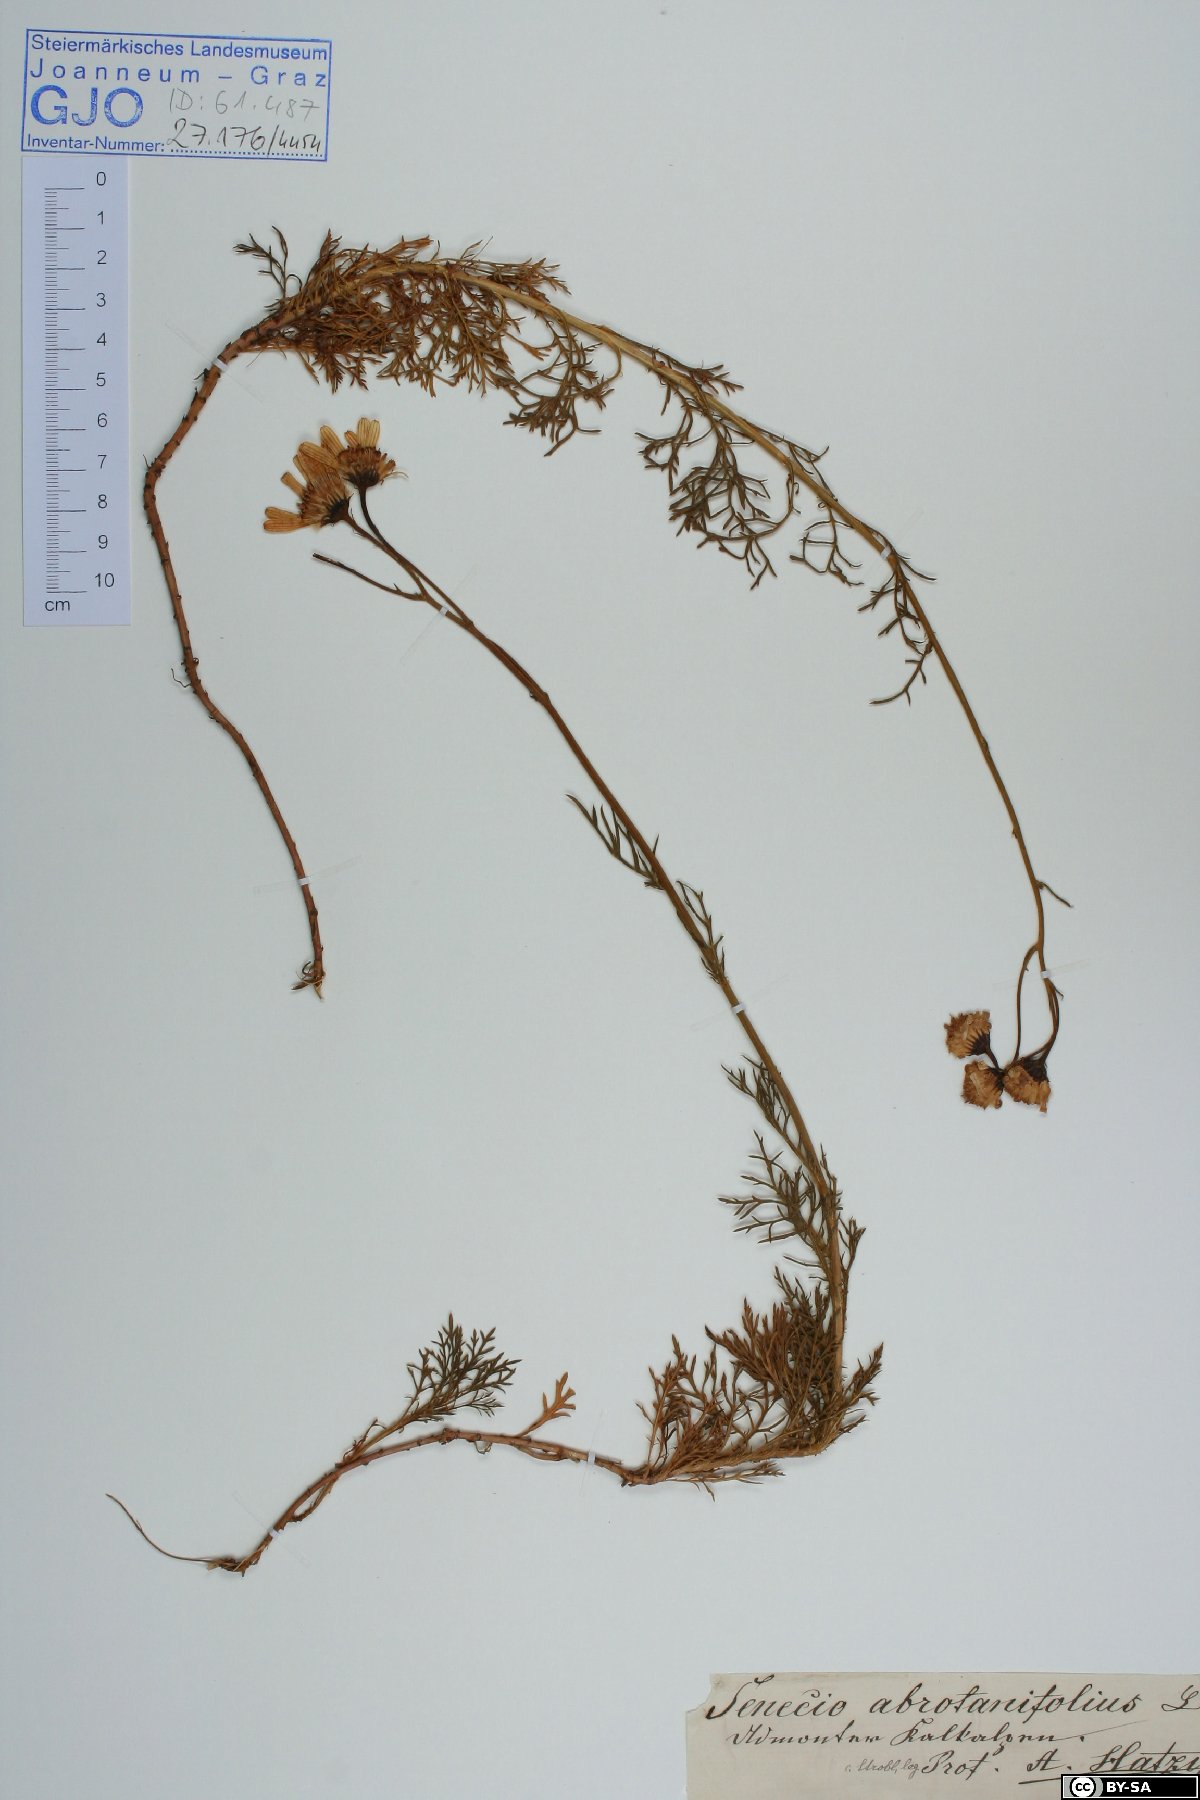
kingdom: Plantae
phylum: Tracheophyta
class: Magnoliopsida
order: Asterales
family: Asteraceae
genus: Jacobaea
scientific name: Jacobaea abrotanifolia
